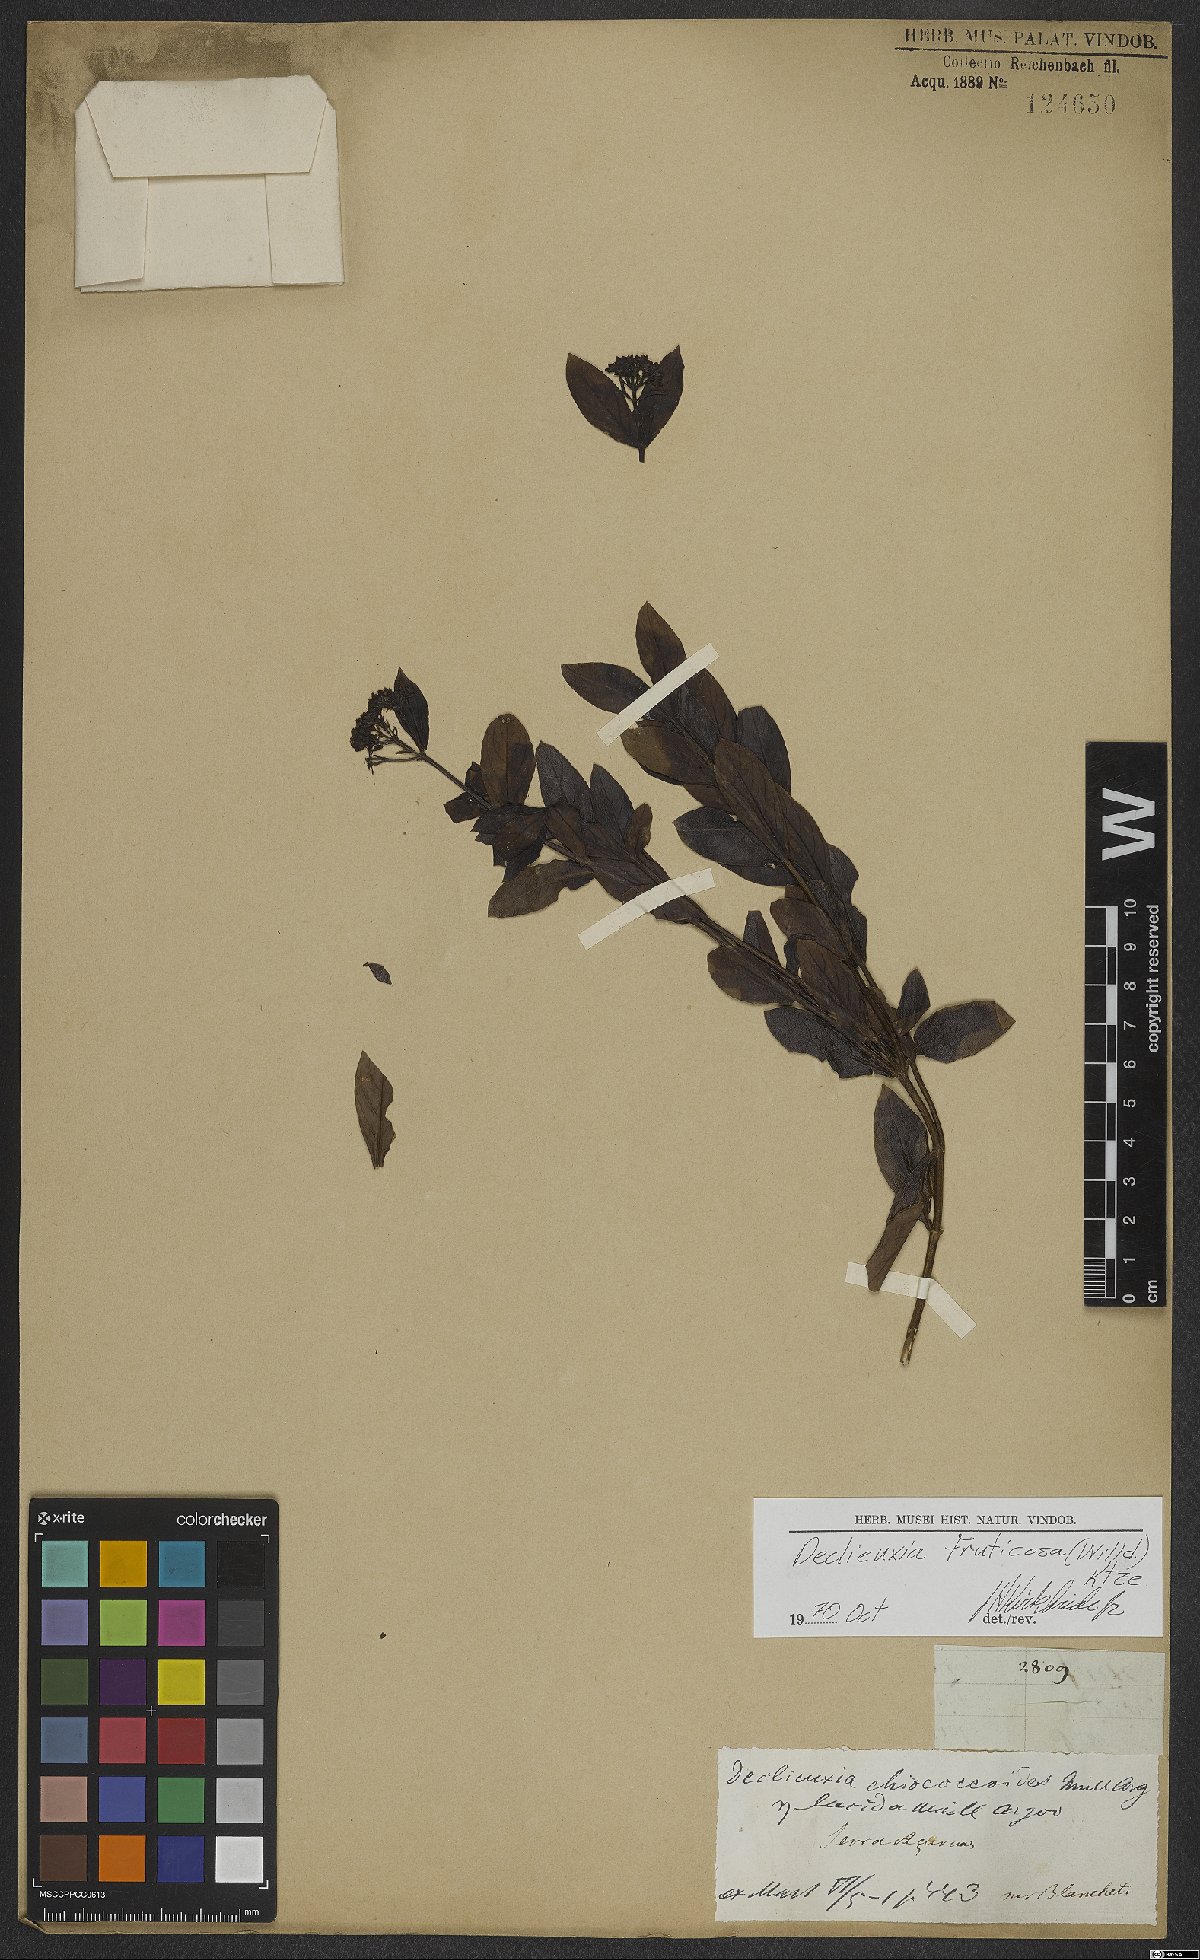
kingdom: Plantae
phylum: Tracheophyta
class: Magnoliopsida
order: Gentianales
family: Rubiaceae
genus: Declieuxia
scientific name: Declieuxia fruticosa
